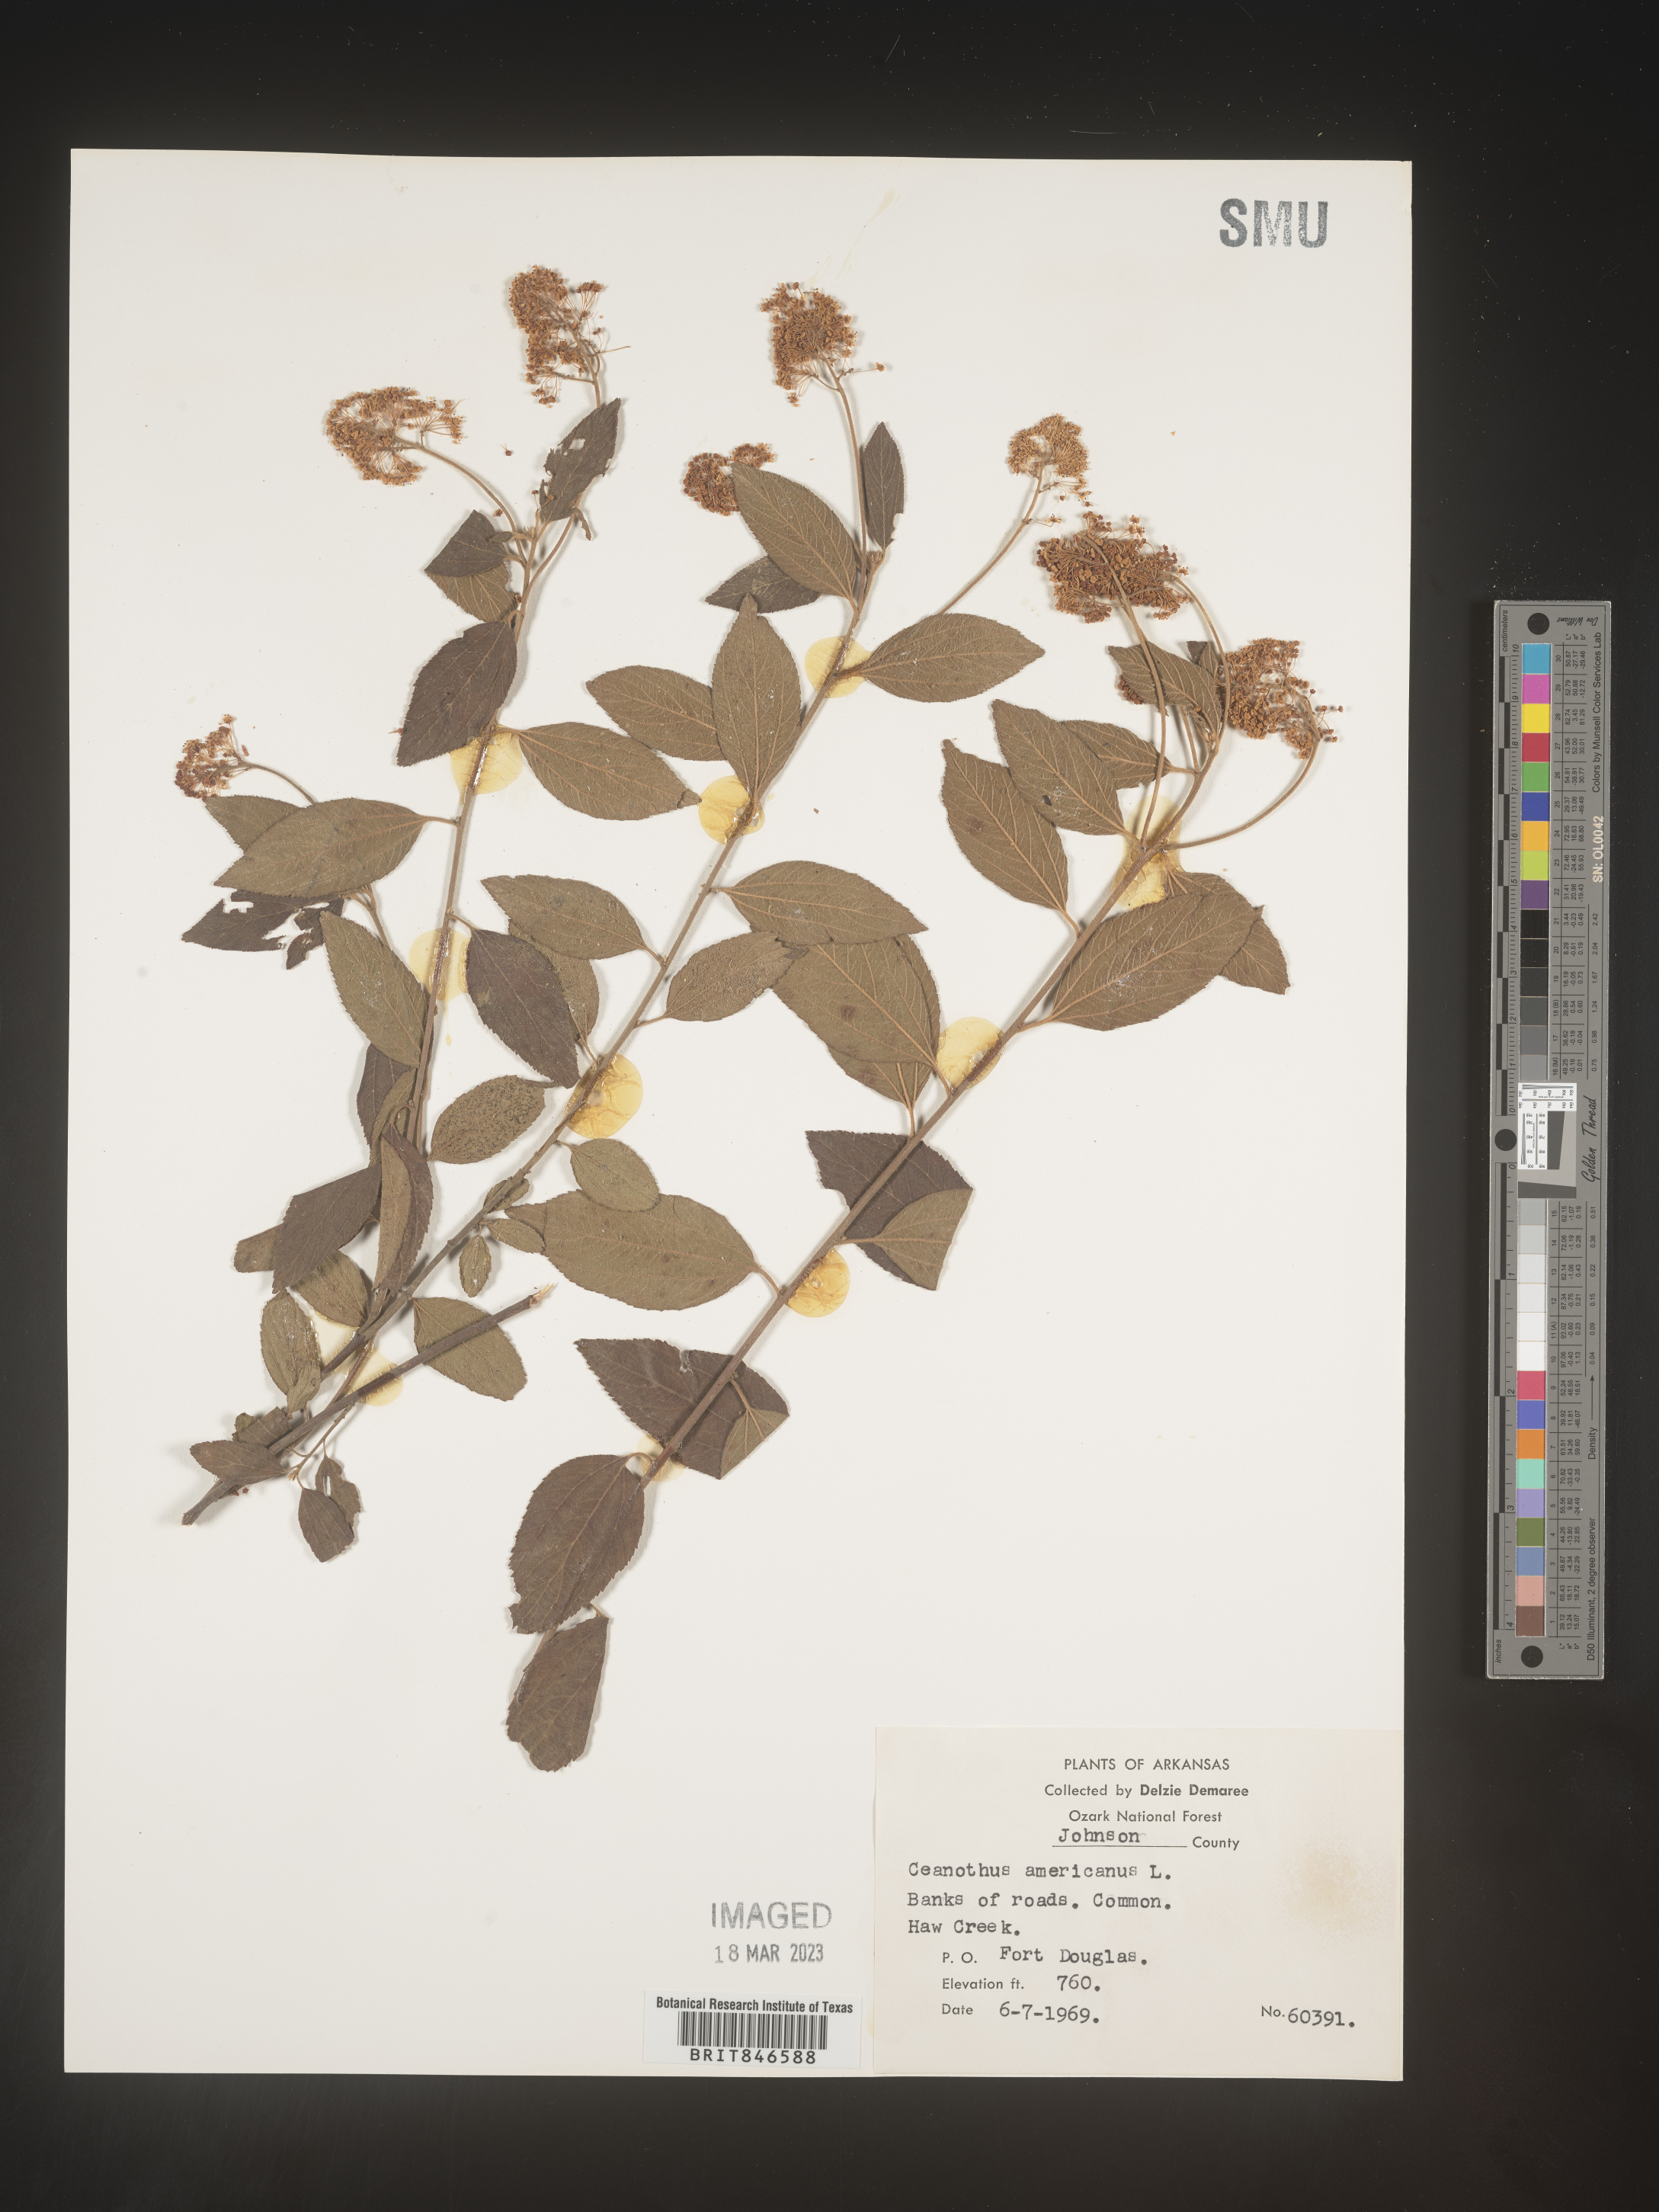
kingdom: Plantae
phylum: Tracheophyta
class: Magnoliopsida
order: Rosales
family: Rhamnaceae
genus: Ceanothus
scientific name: Ceanothus americanus
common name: Redroot
